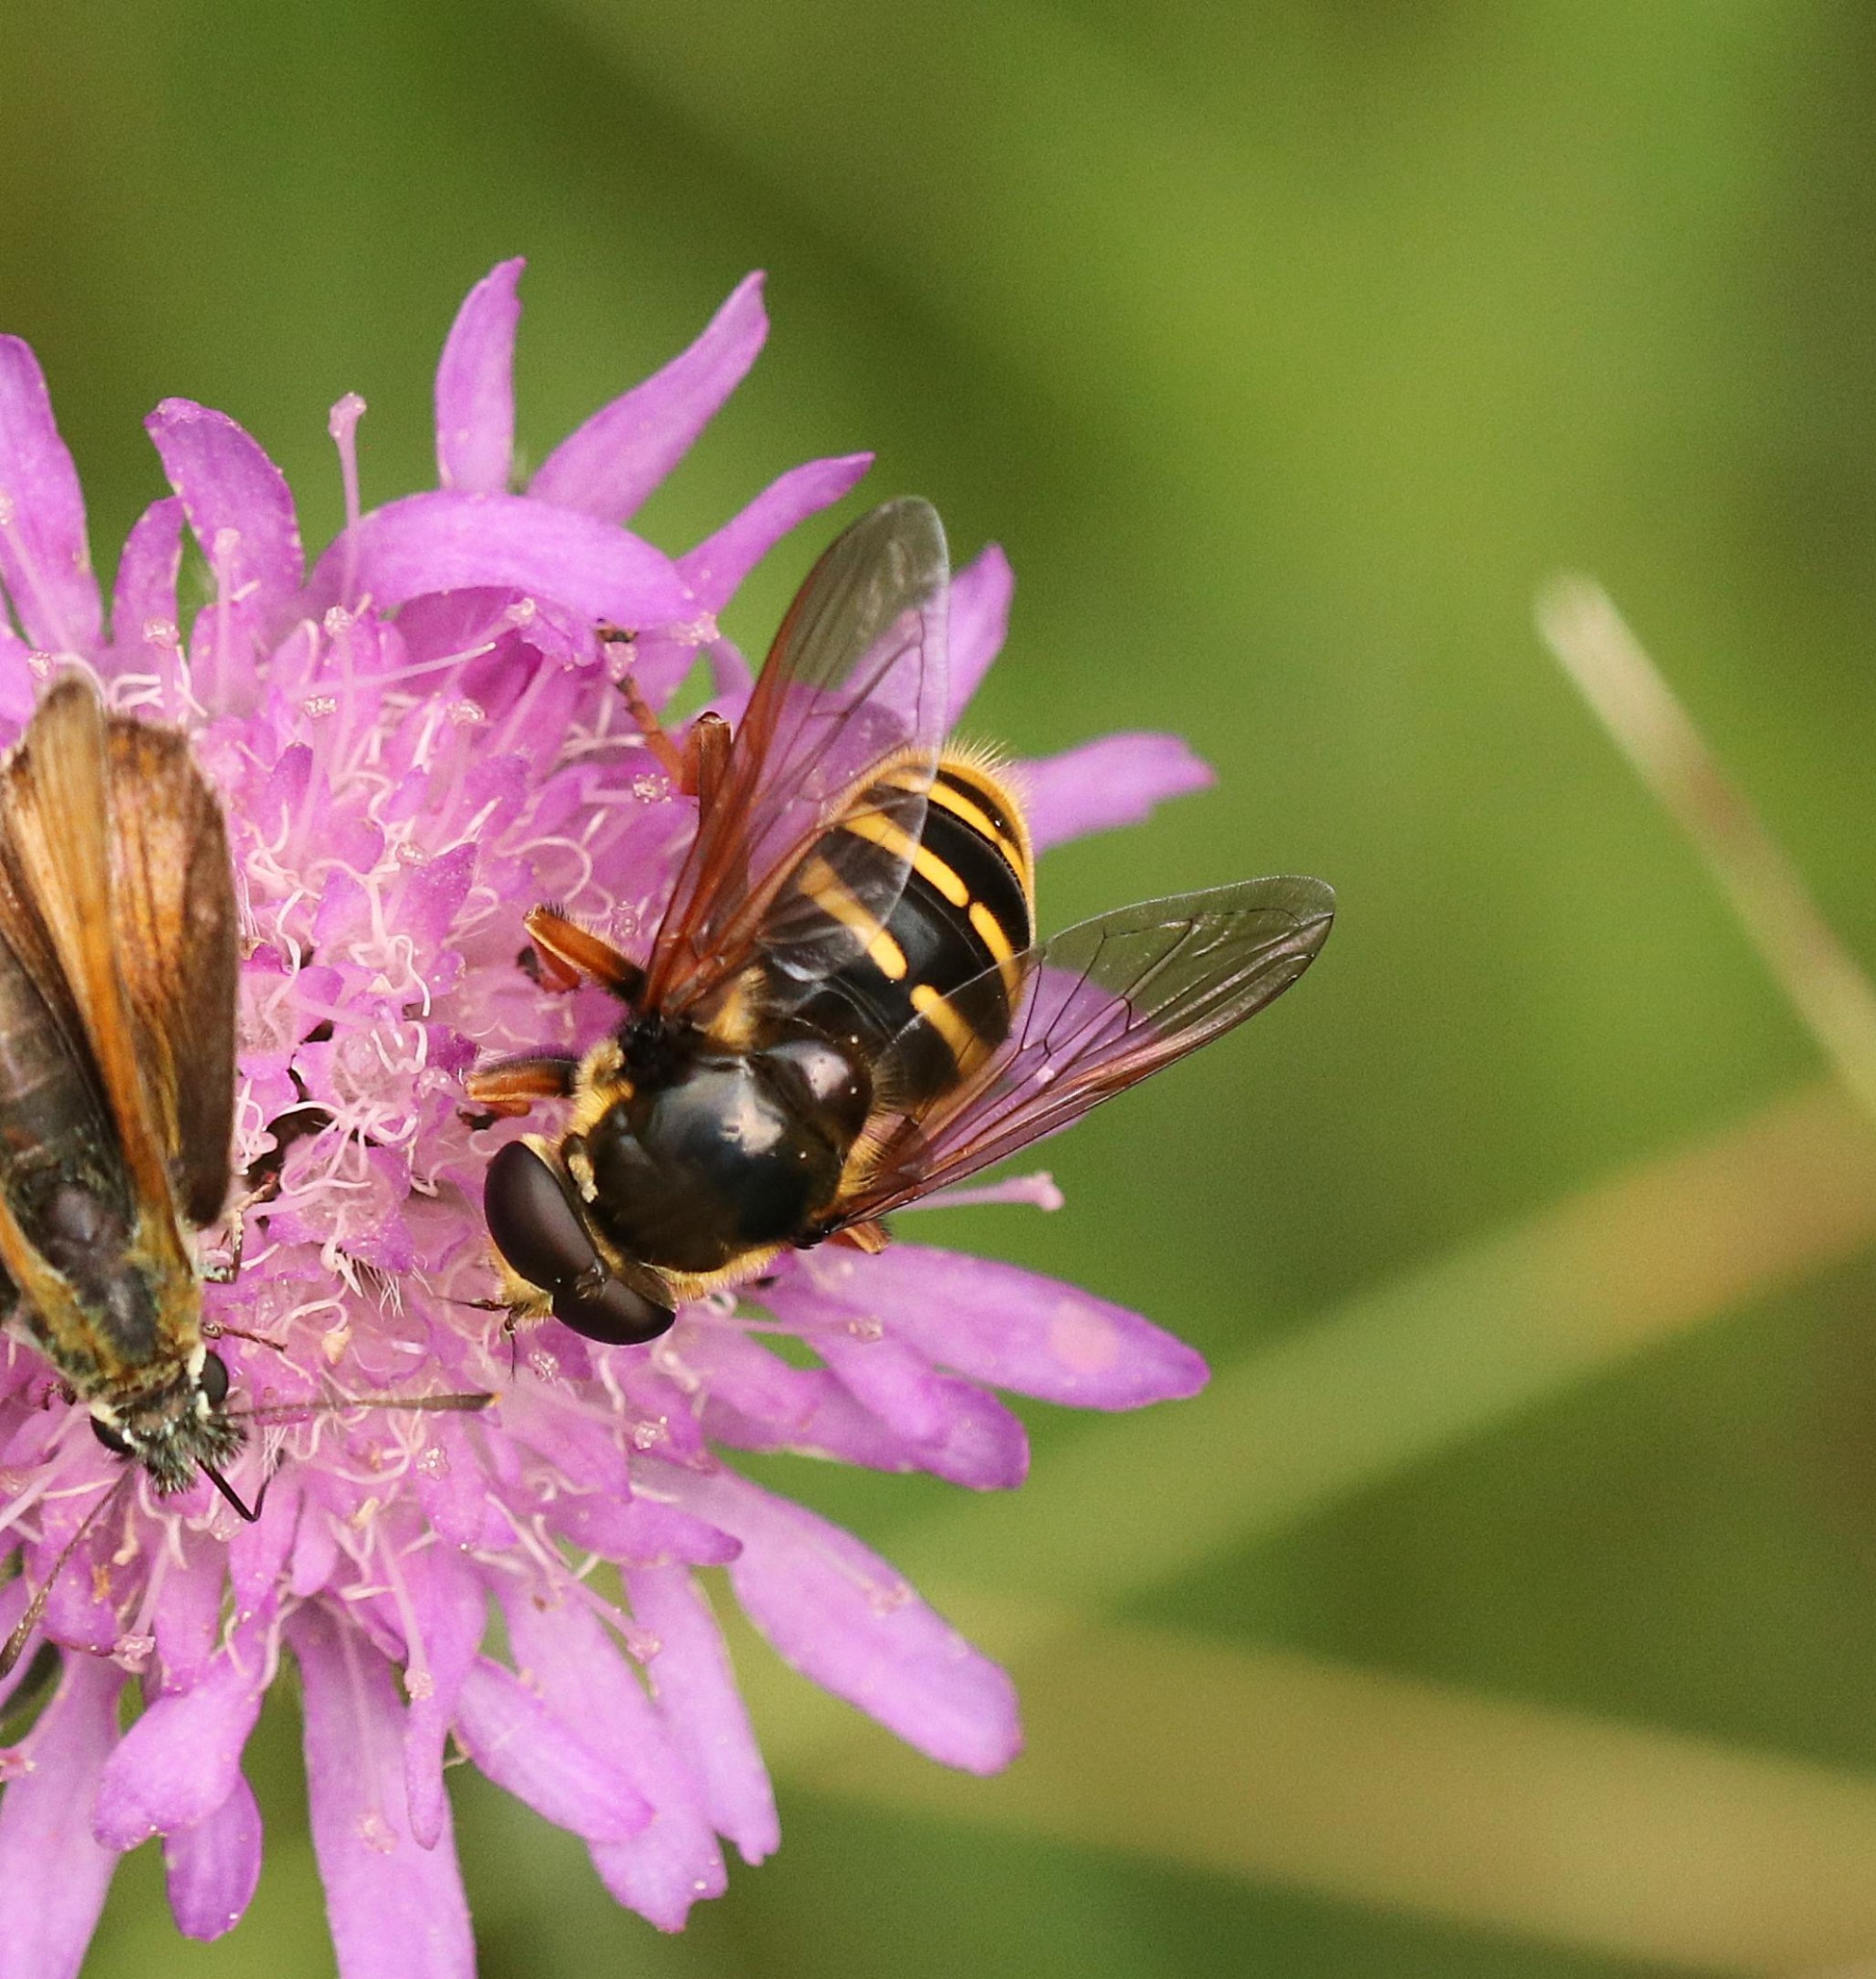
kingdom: Animalia
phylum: Arthropoda
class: Insecta
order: Diptera
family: Syrphidae
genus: Sericomyia
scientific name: Sericomyia silentis
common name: Tørve-silkesvirreflue
